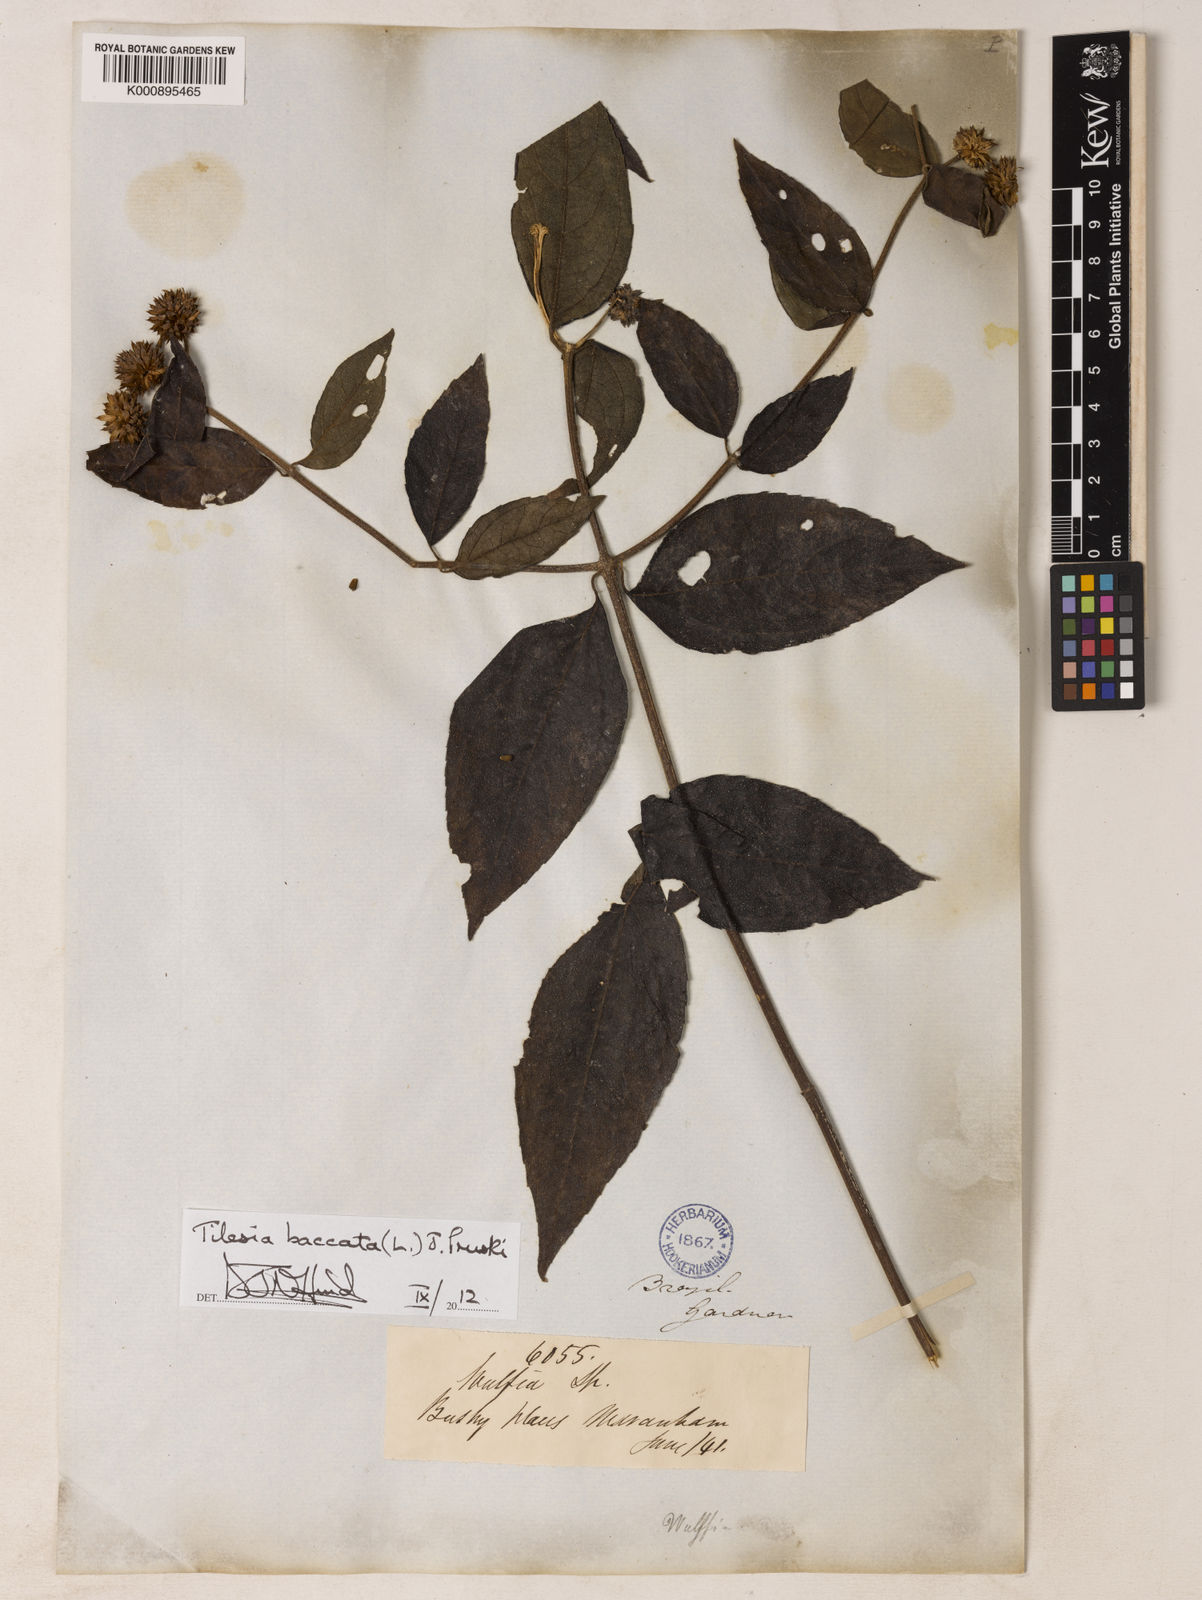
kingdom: Plantae
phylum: Tracheophyta
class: Magnoliopsida
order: Asterales
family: Asteraceae
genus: Tilesia
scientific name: Tilesia baccata
